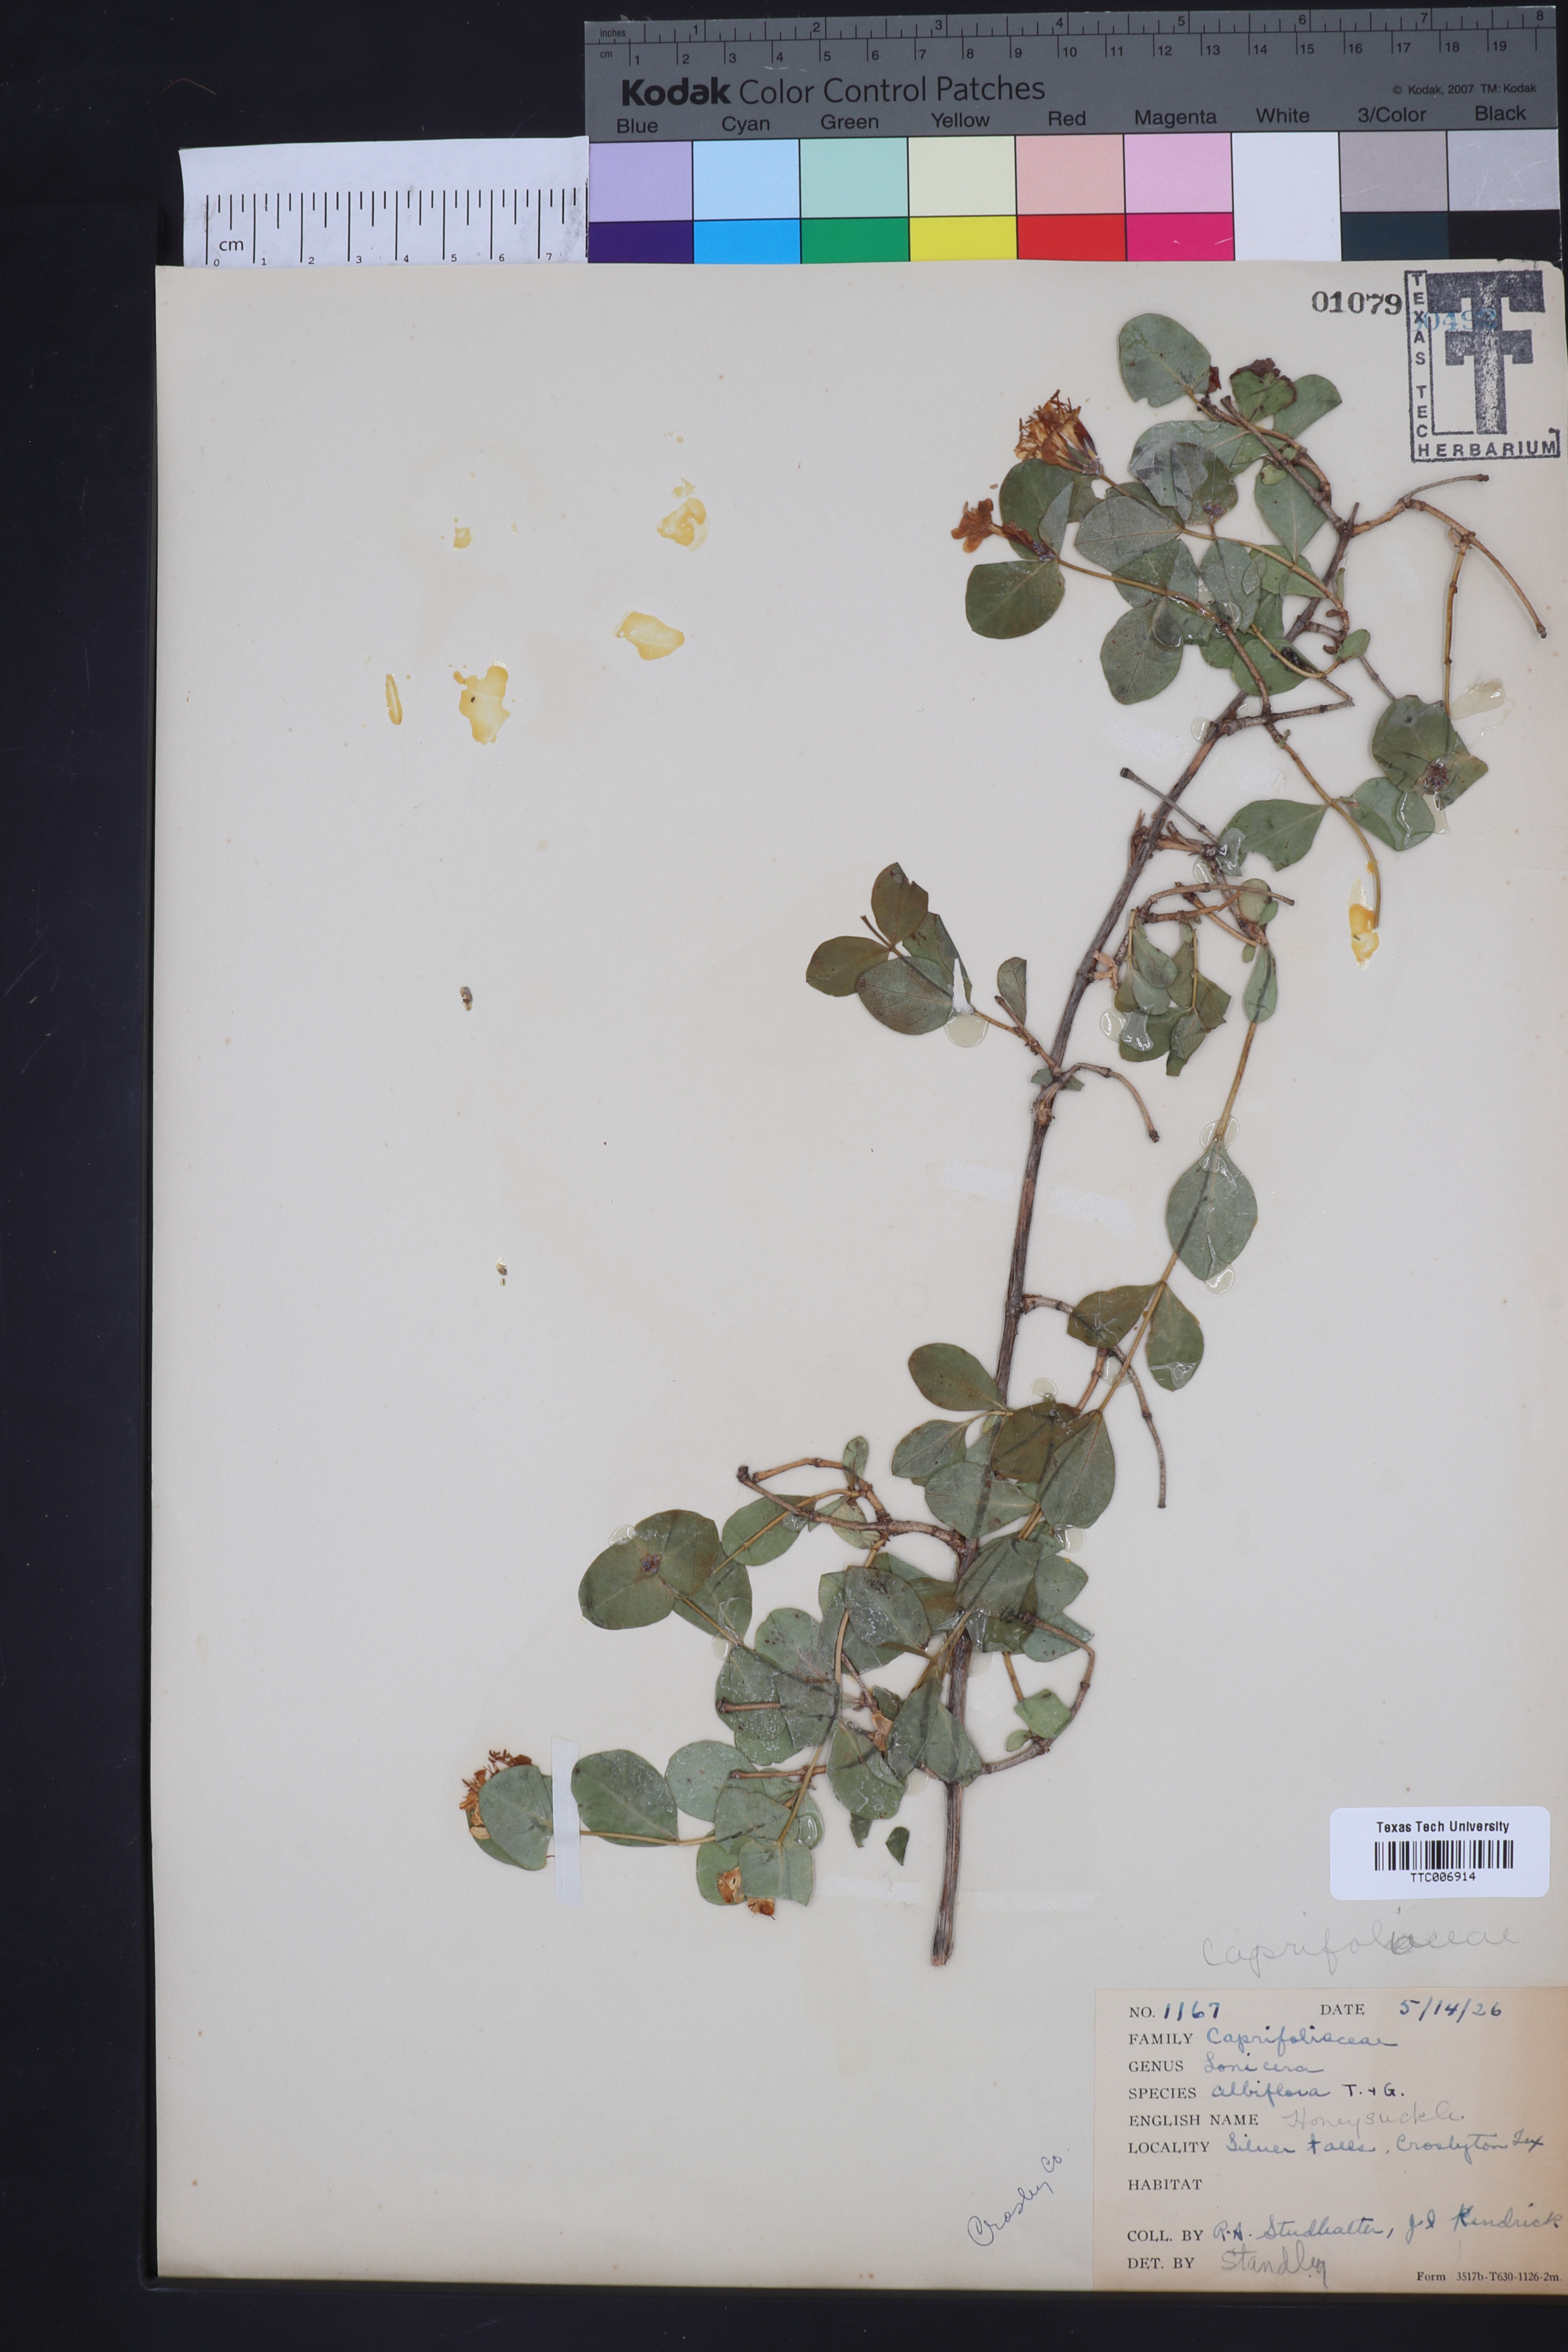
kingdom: Plantae
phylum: Tracheophyta
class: Magnoliopsida
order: Dipsacales
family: Caprifoliaceae
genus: Lonicera
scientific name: Lonicera albiflora
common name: White honeysuckle
